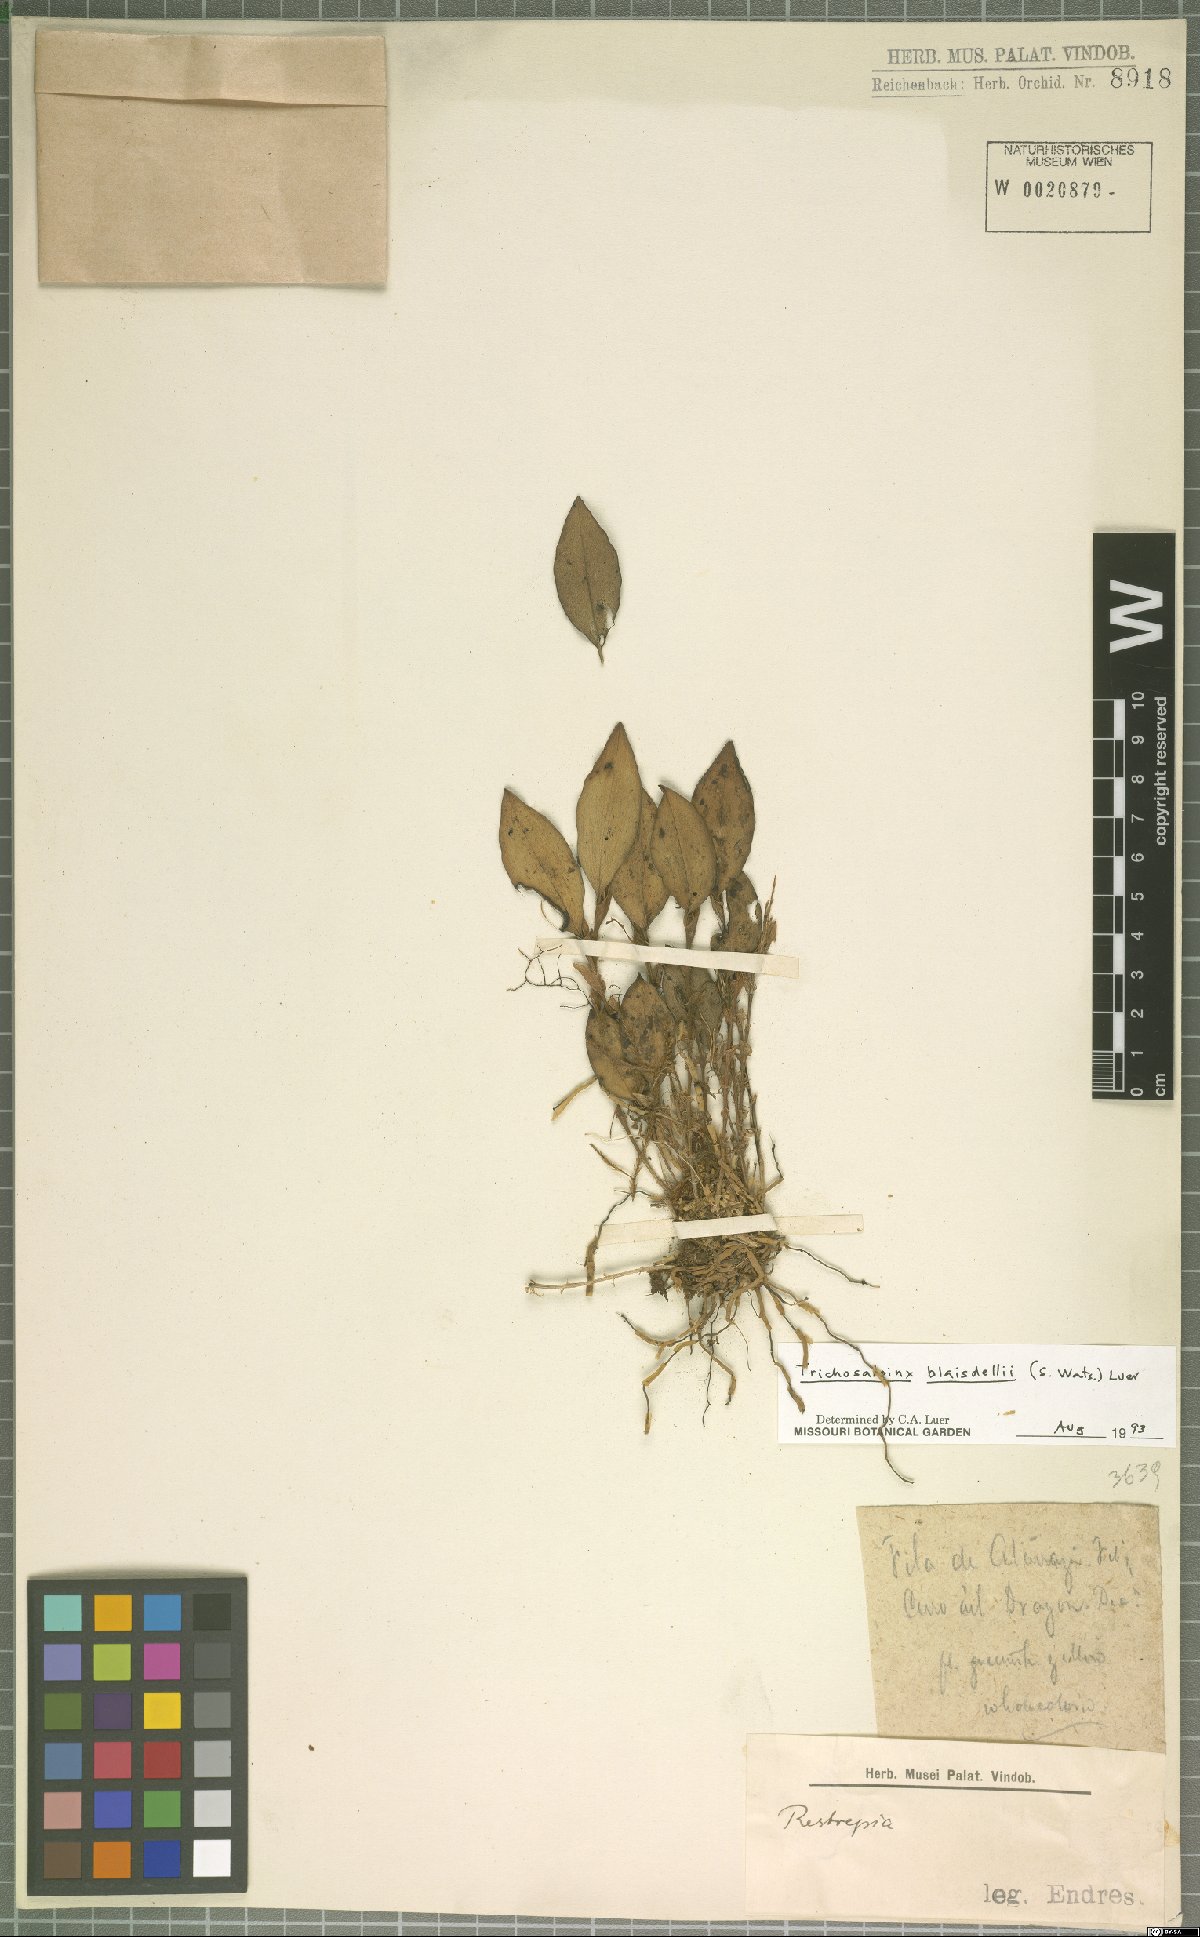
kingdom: Plantae
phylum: Tracheophyta
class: Liliopsida
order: Asparagales
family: Orchidaceae
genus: Trichosalpinx
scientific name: Trichosalpinx blaisdellii
